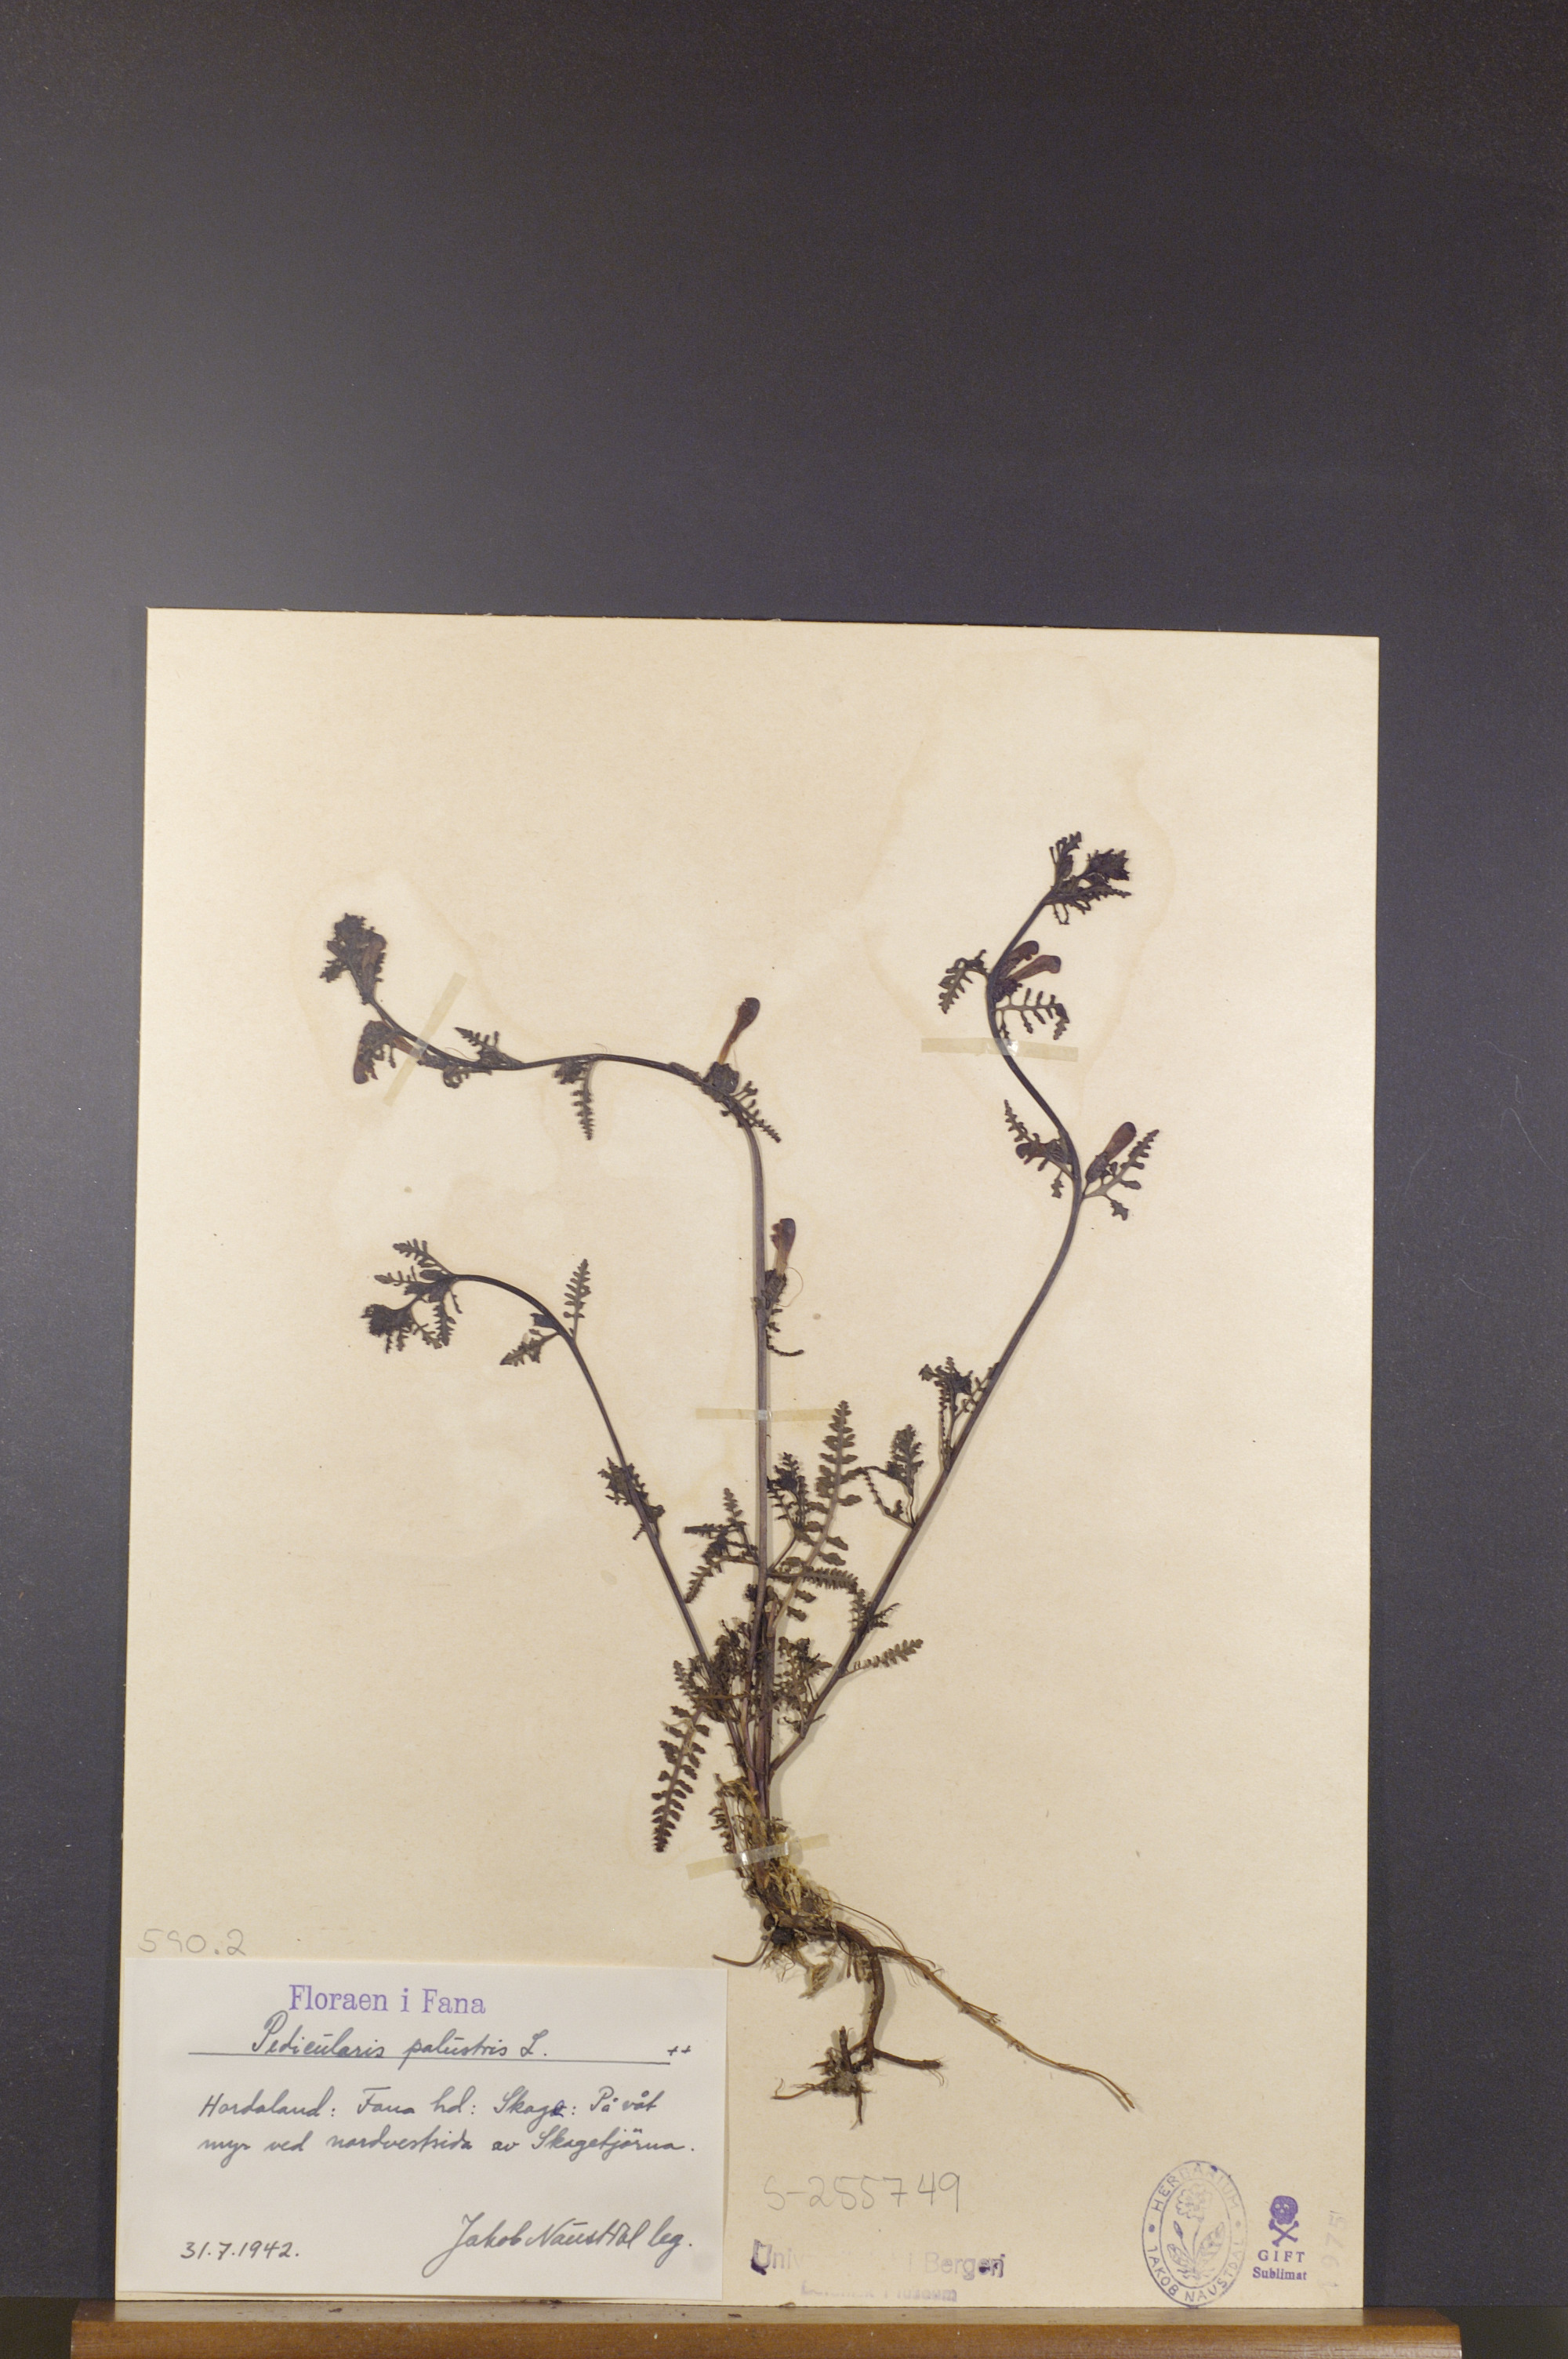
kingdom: Plantae
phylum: Tracheophyta
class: Magnoliopsida
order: Lamiales
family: Orobanchaceae
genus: Pedicularis
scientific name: Pedicularis palustris
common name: Marsh lousewort
